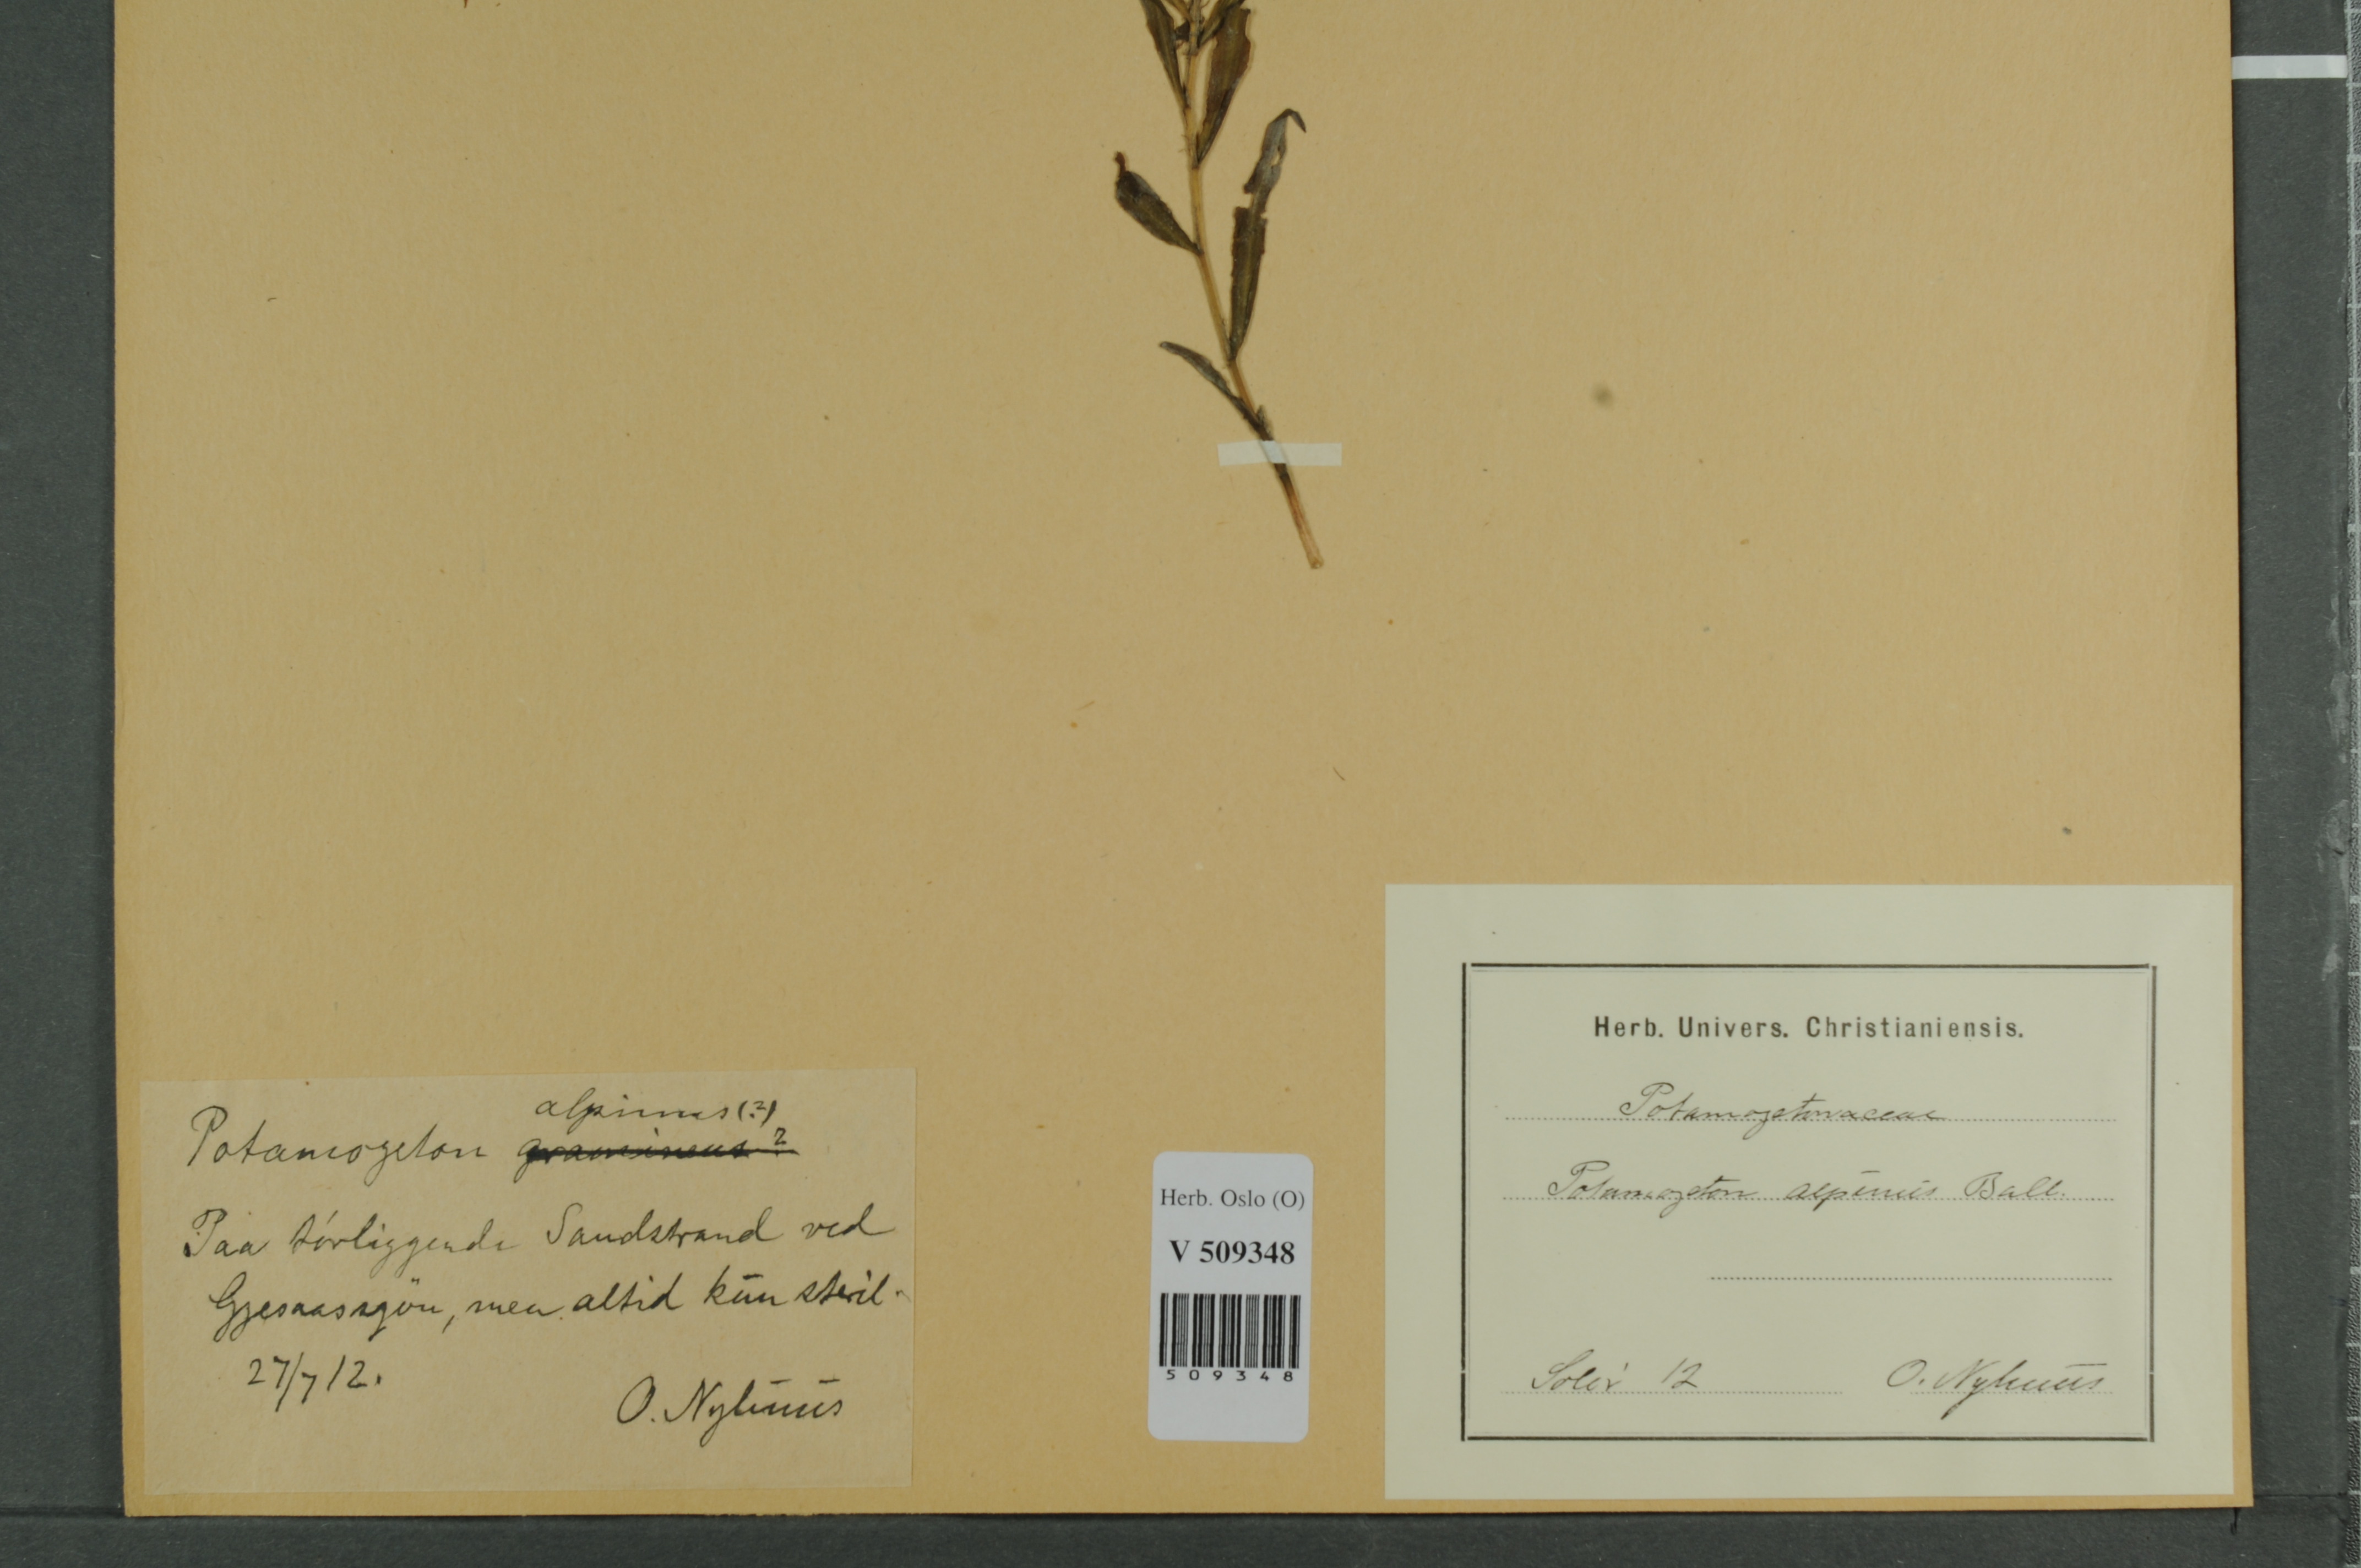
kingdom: Plantae
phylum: Tracheophyta
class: Liliopsida
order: Alismatales
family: Potamogetonaceae
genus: Potamogeton
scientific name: Potamogeton nericius
